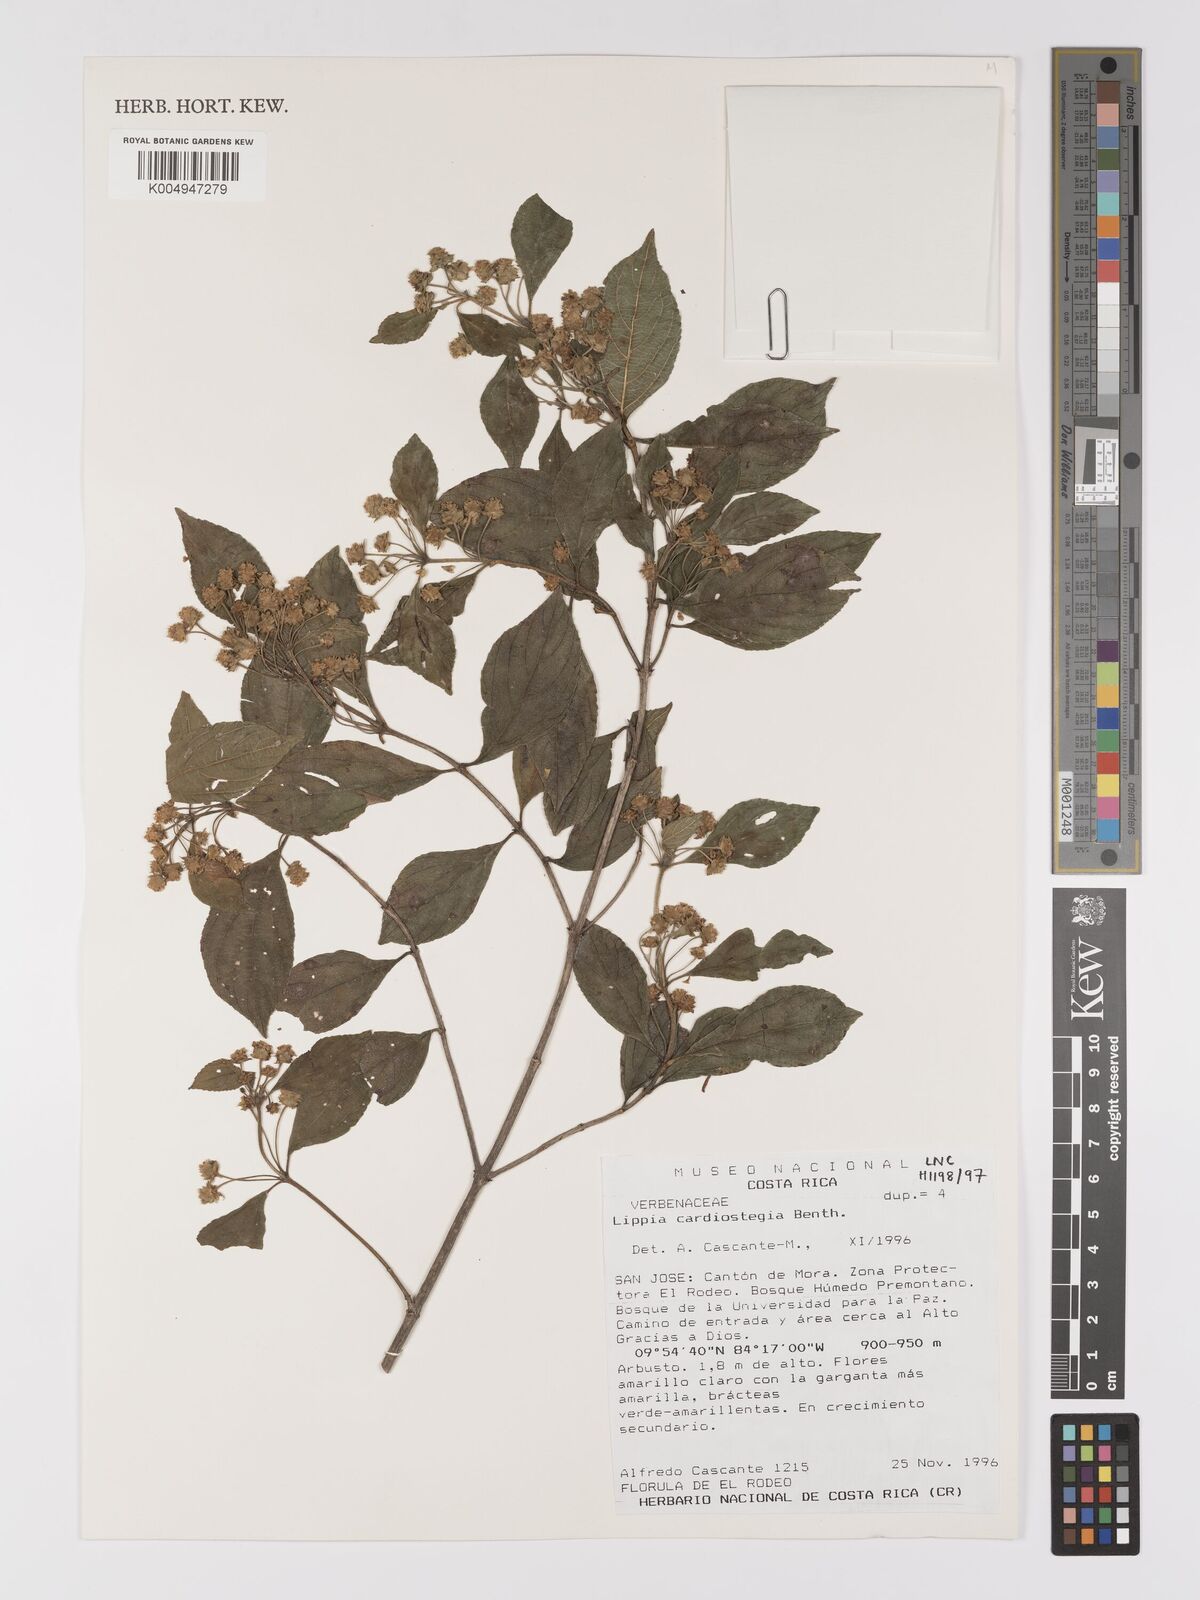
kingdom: Plantae
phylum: Tracheophyta
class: Magnoliopsida
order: Lamiales
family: Verbenaceae
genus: Lippia
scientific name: Lippia cardiostegia
